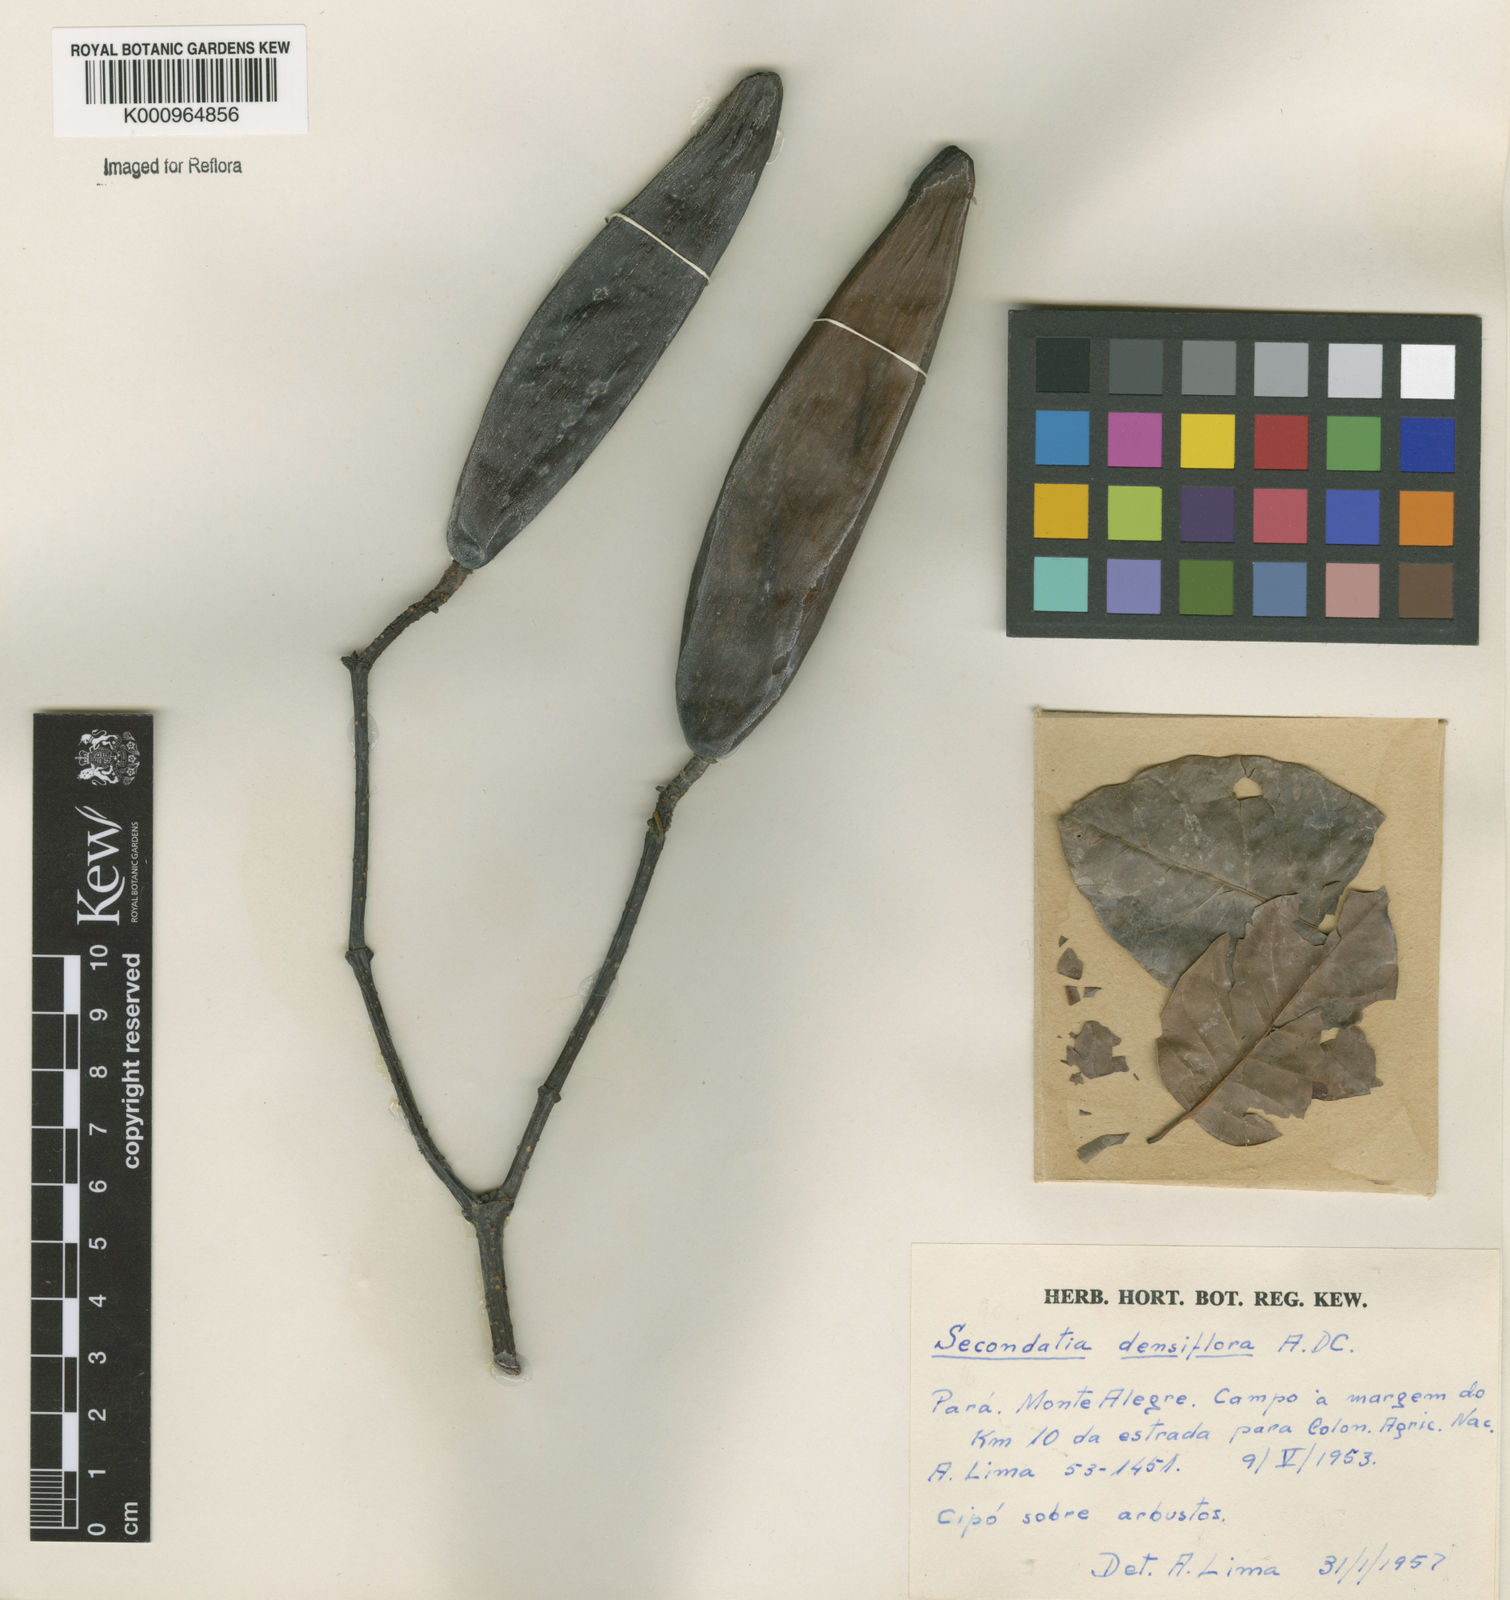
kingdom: Plantae
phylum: Tracheophyta
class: Magnoliopsida
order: Gentianales
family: Apocynaceae
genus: Secondatia
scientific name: Secondatia densiflora
